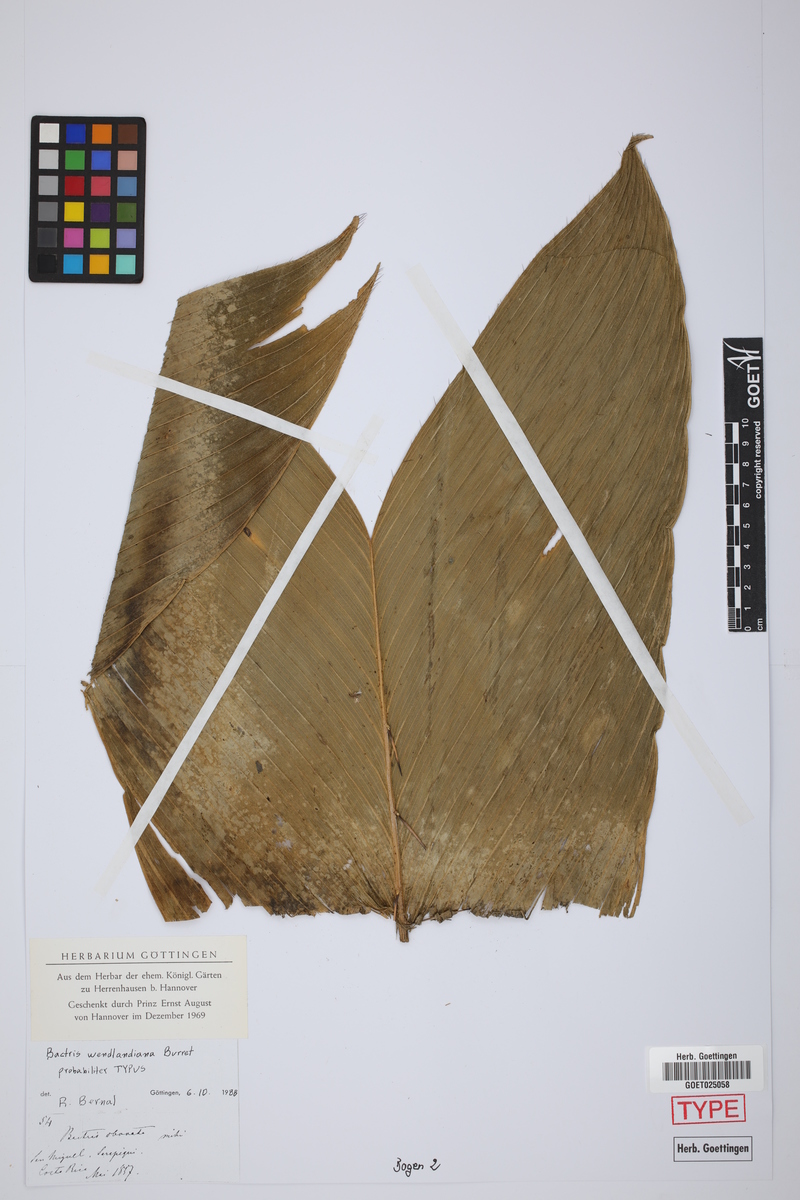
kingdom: Plantae
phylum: Tracheophyta
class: Liliopsida
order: Arecales
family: Arecaceae
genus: Bactris
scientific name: Bactris obovata
